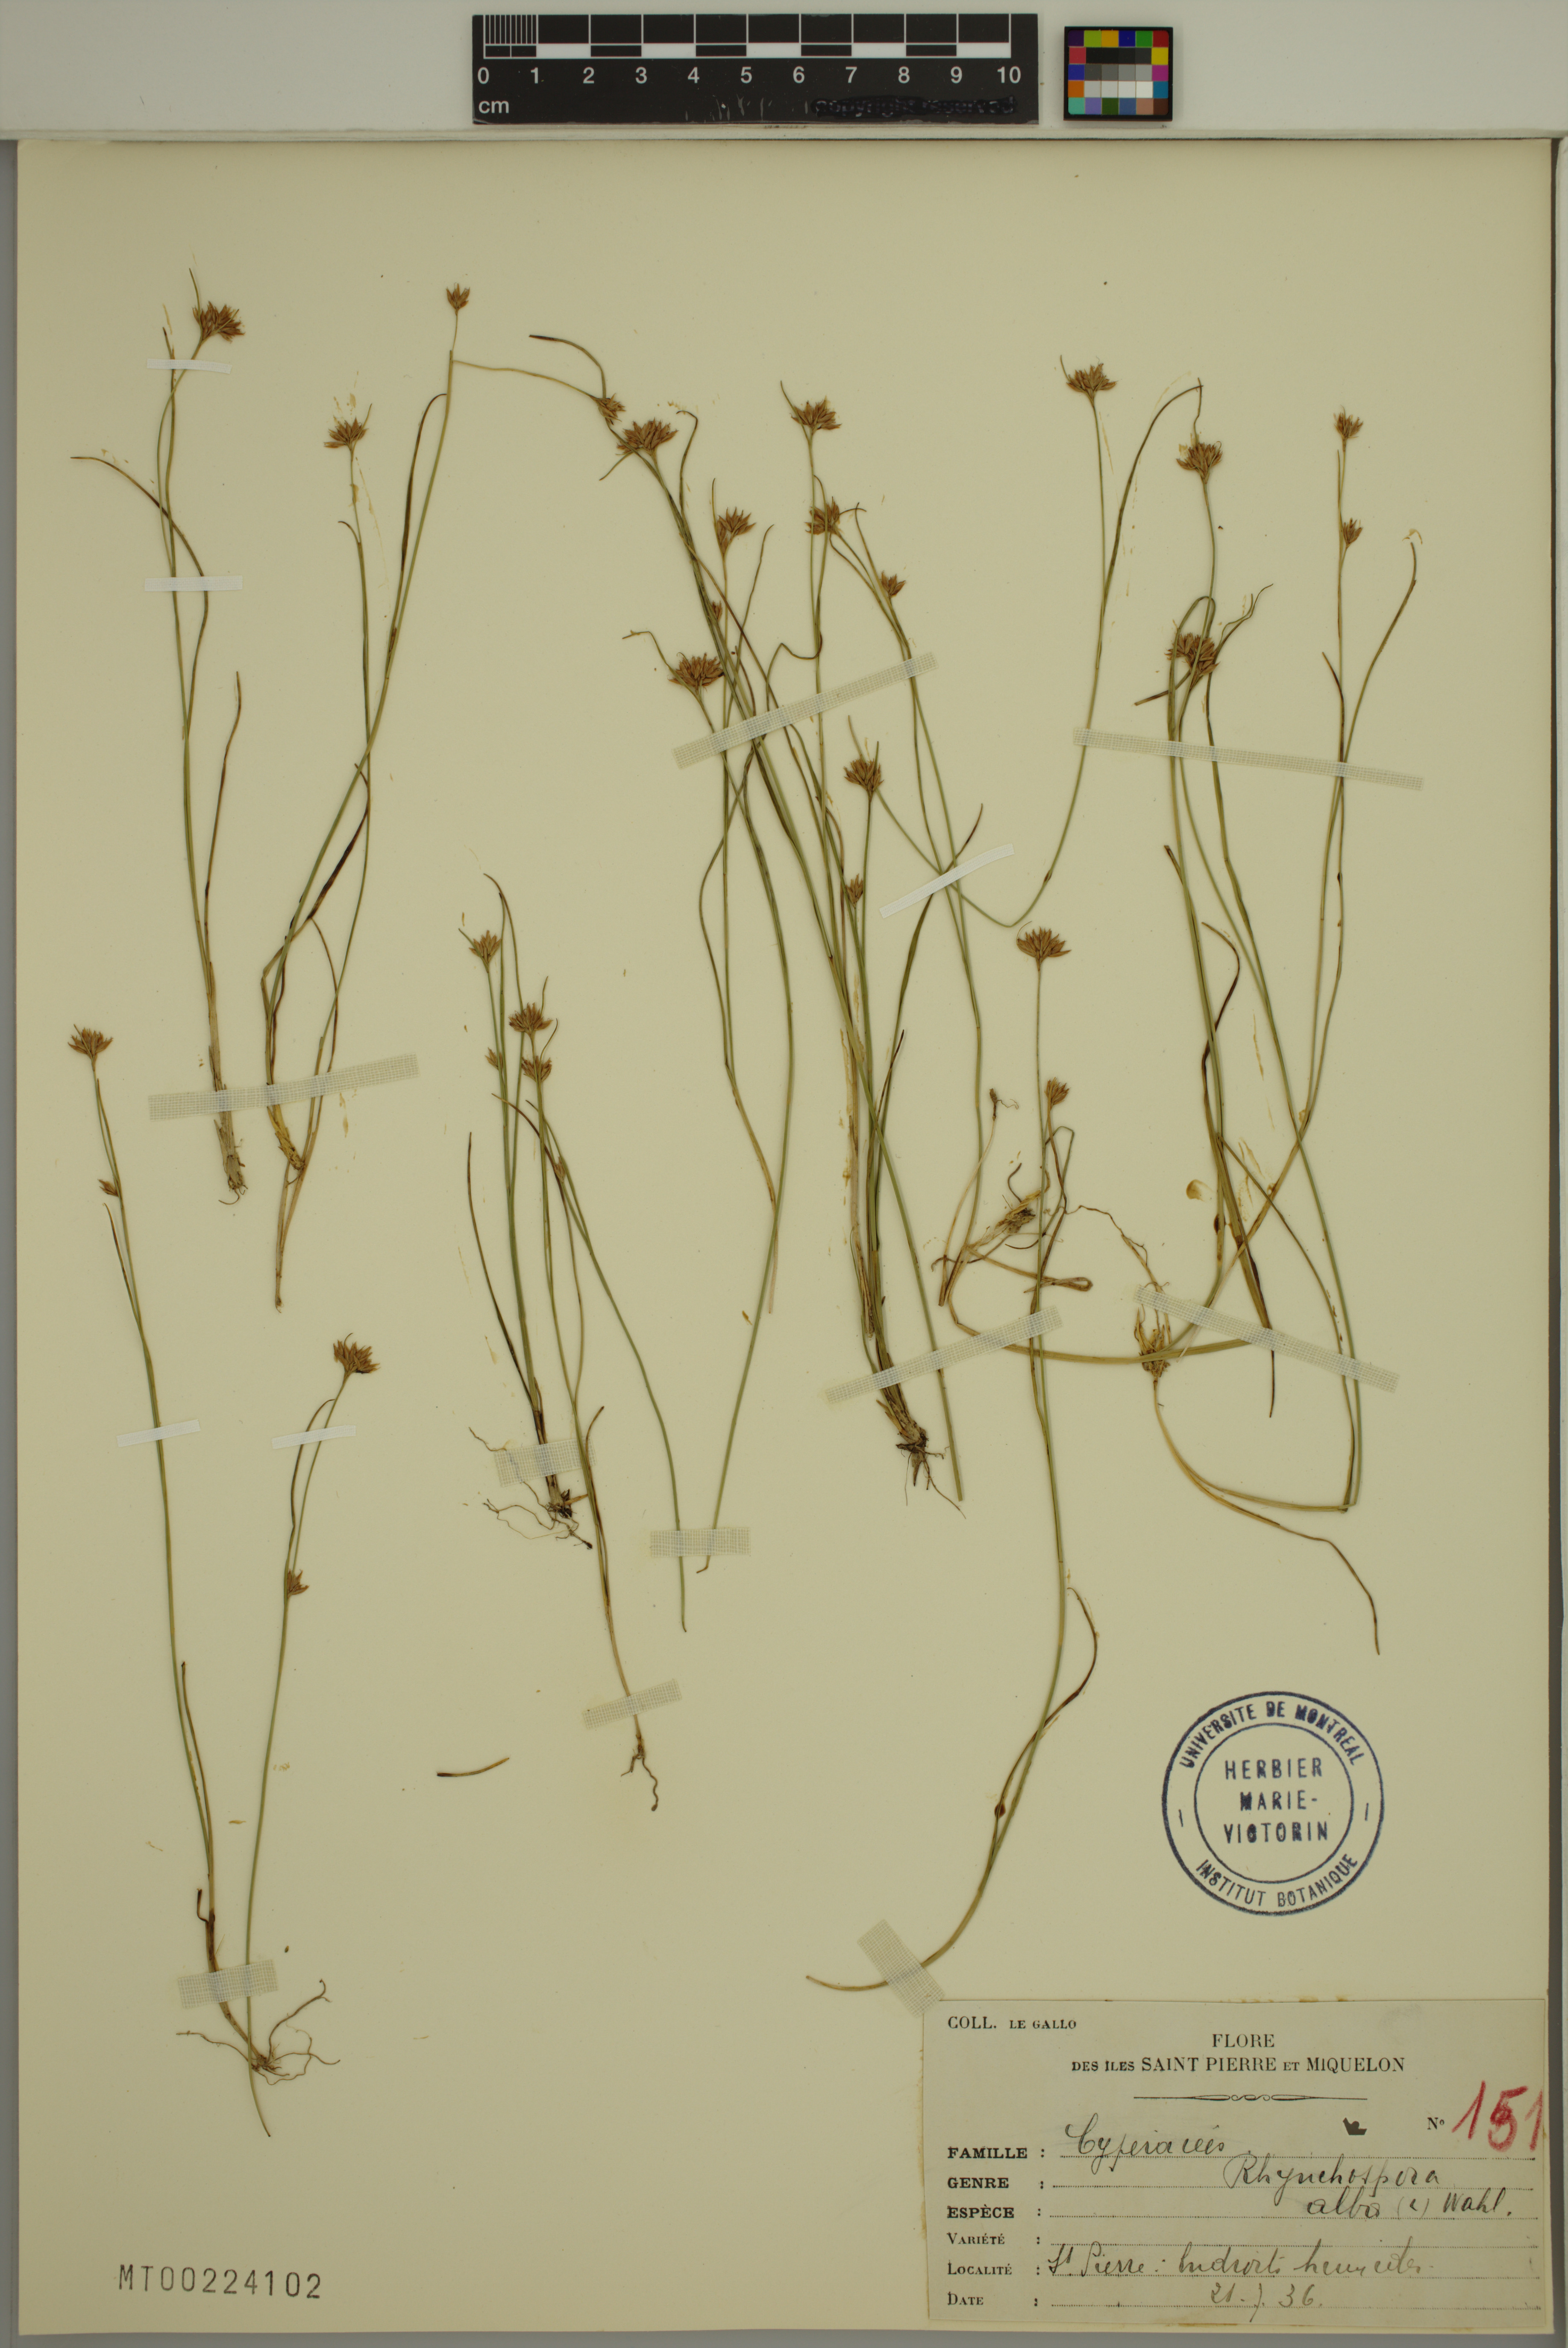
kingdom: Plantae
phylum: Tracheophyta
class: Liliopsida
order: Poales
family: Cyperaceae
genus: Rhynchospora
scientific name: Rhynchospora alba
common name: White beak-sedge
